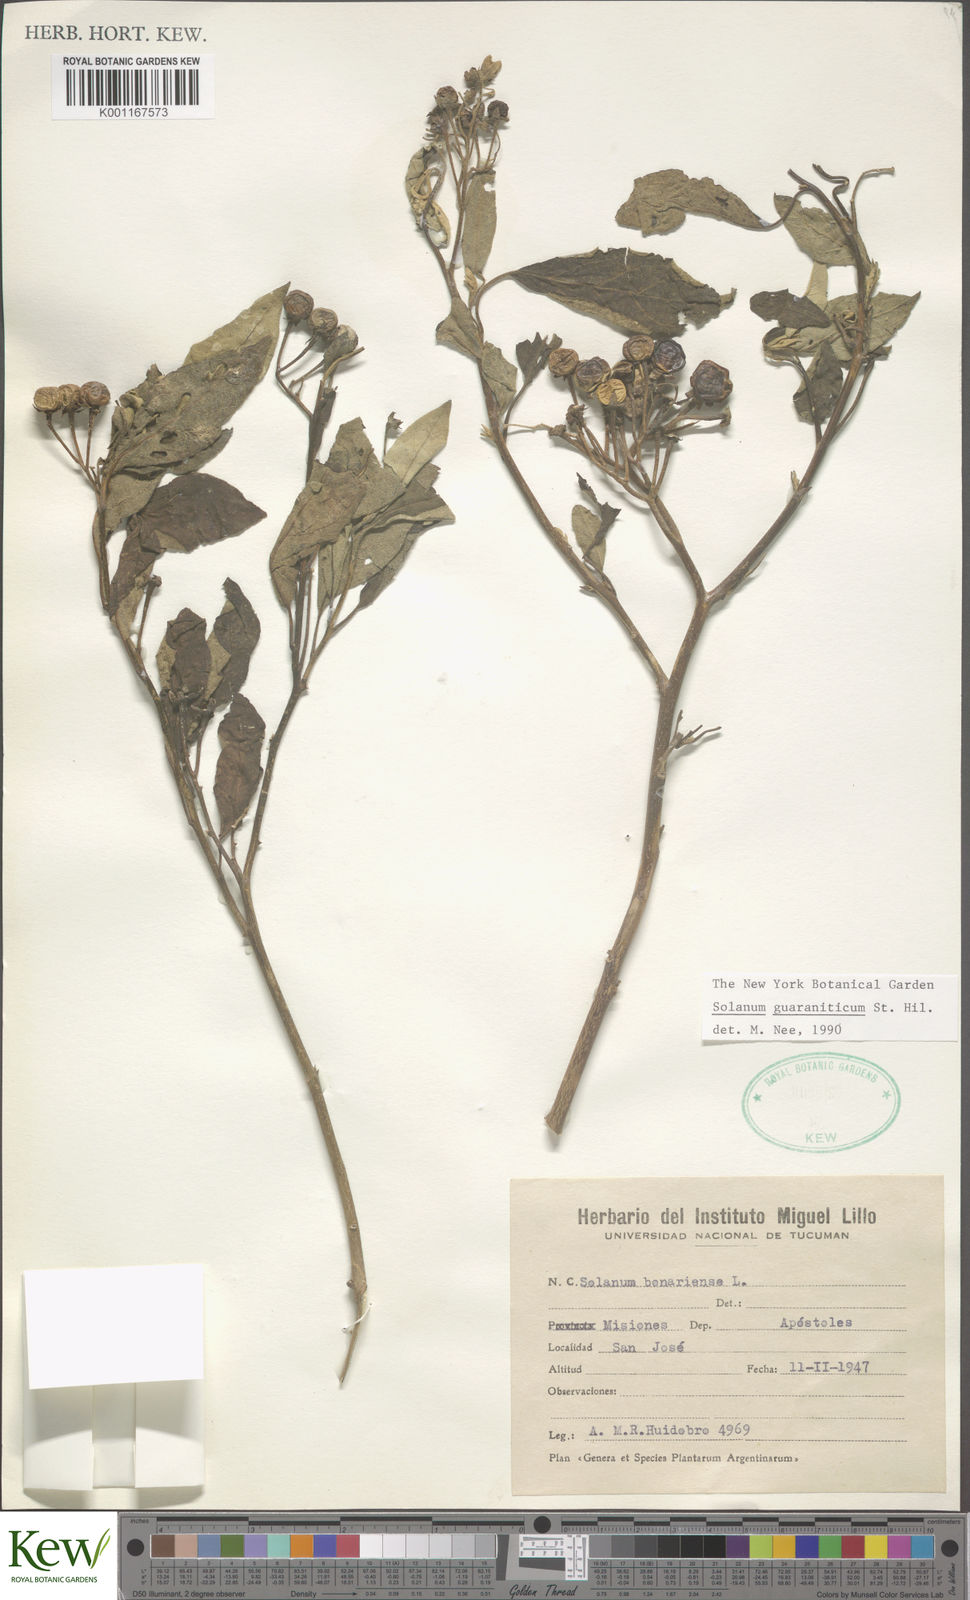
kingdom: Plantae
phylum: Tracheophyta
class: Magnoliopsida
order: Solanales
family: Solanaceae
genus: Solanum
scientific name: Solanum guaraniticum
